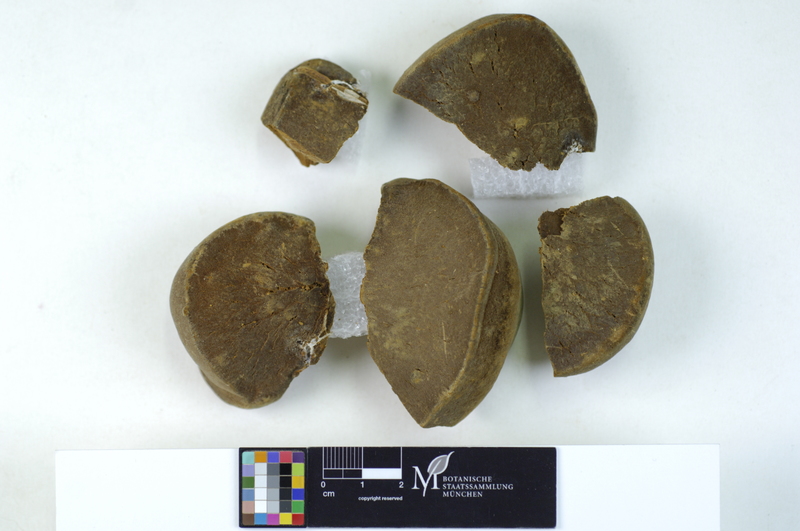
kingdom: Fungi
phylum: Basidiomycota
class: Agaricomycetes
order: Hymenochaetales
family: Hymenochaetaceae
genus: Fomitiporia
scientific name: Fomitiporia hippophaeicola
